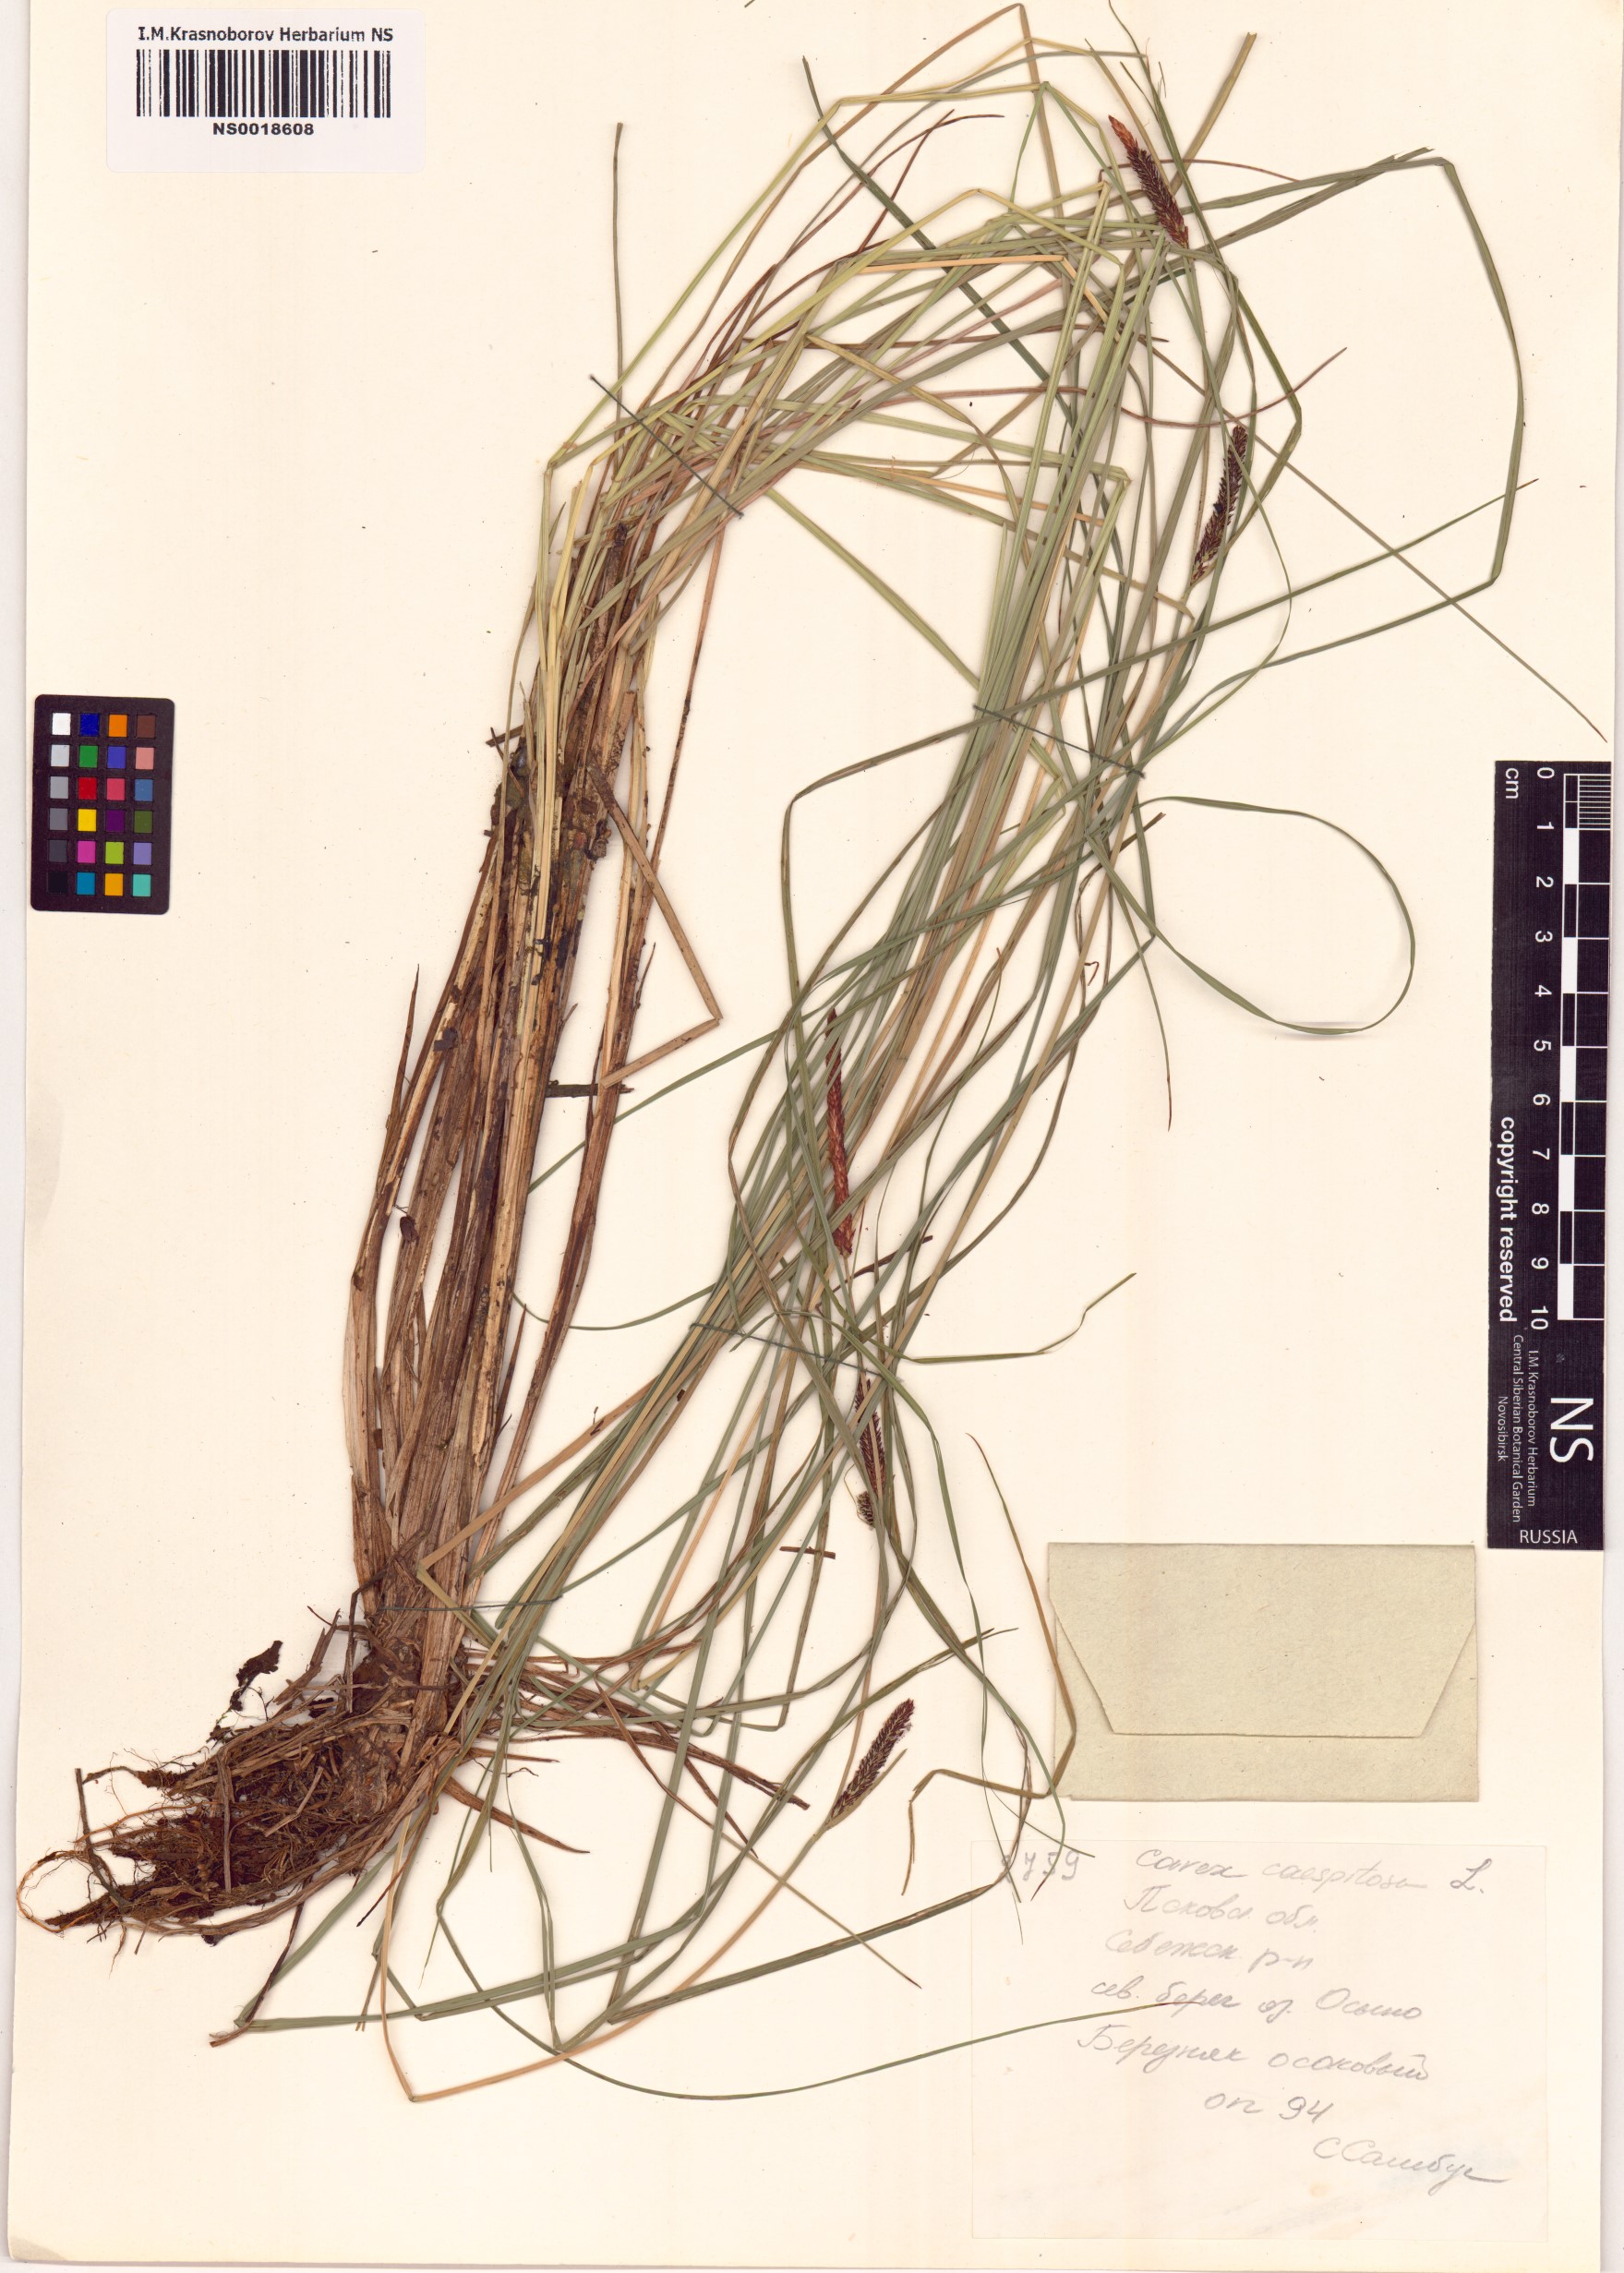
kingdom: Plantae
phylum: Tracheophyta
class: Liliopsida
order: Poales
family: Cyperaceae
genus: Carex
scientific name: Carex cespitosa
